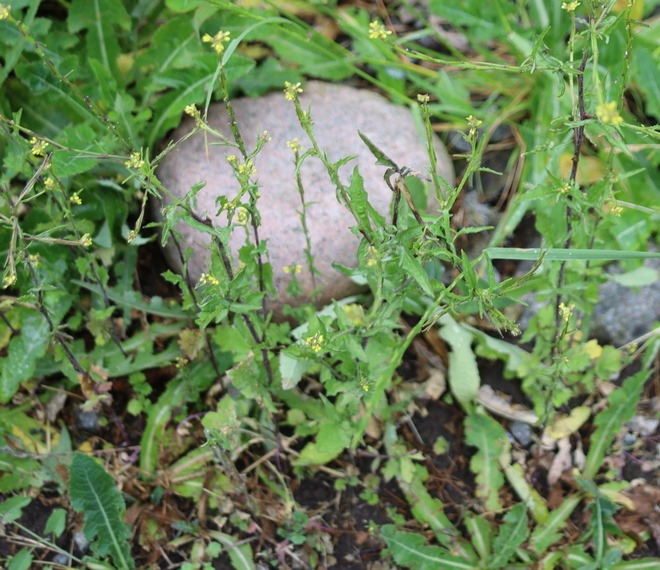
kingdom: Plantae
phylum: Tracheophyta
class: Magnoliopsida
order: Brassicales
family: Brassicaceae
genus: Sisymbrium
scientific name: Sisymbrium officinale
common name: Rank vejsennep
